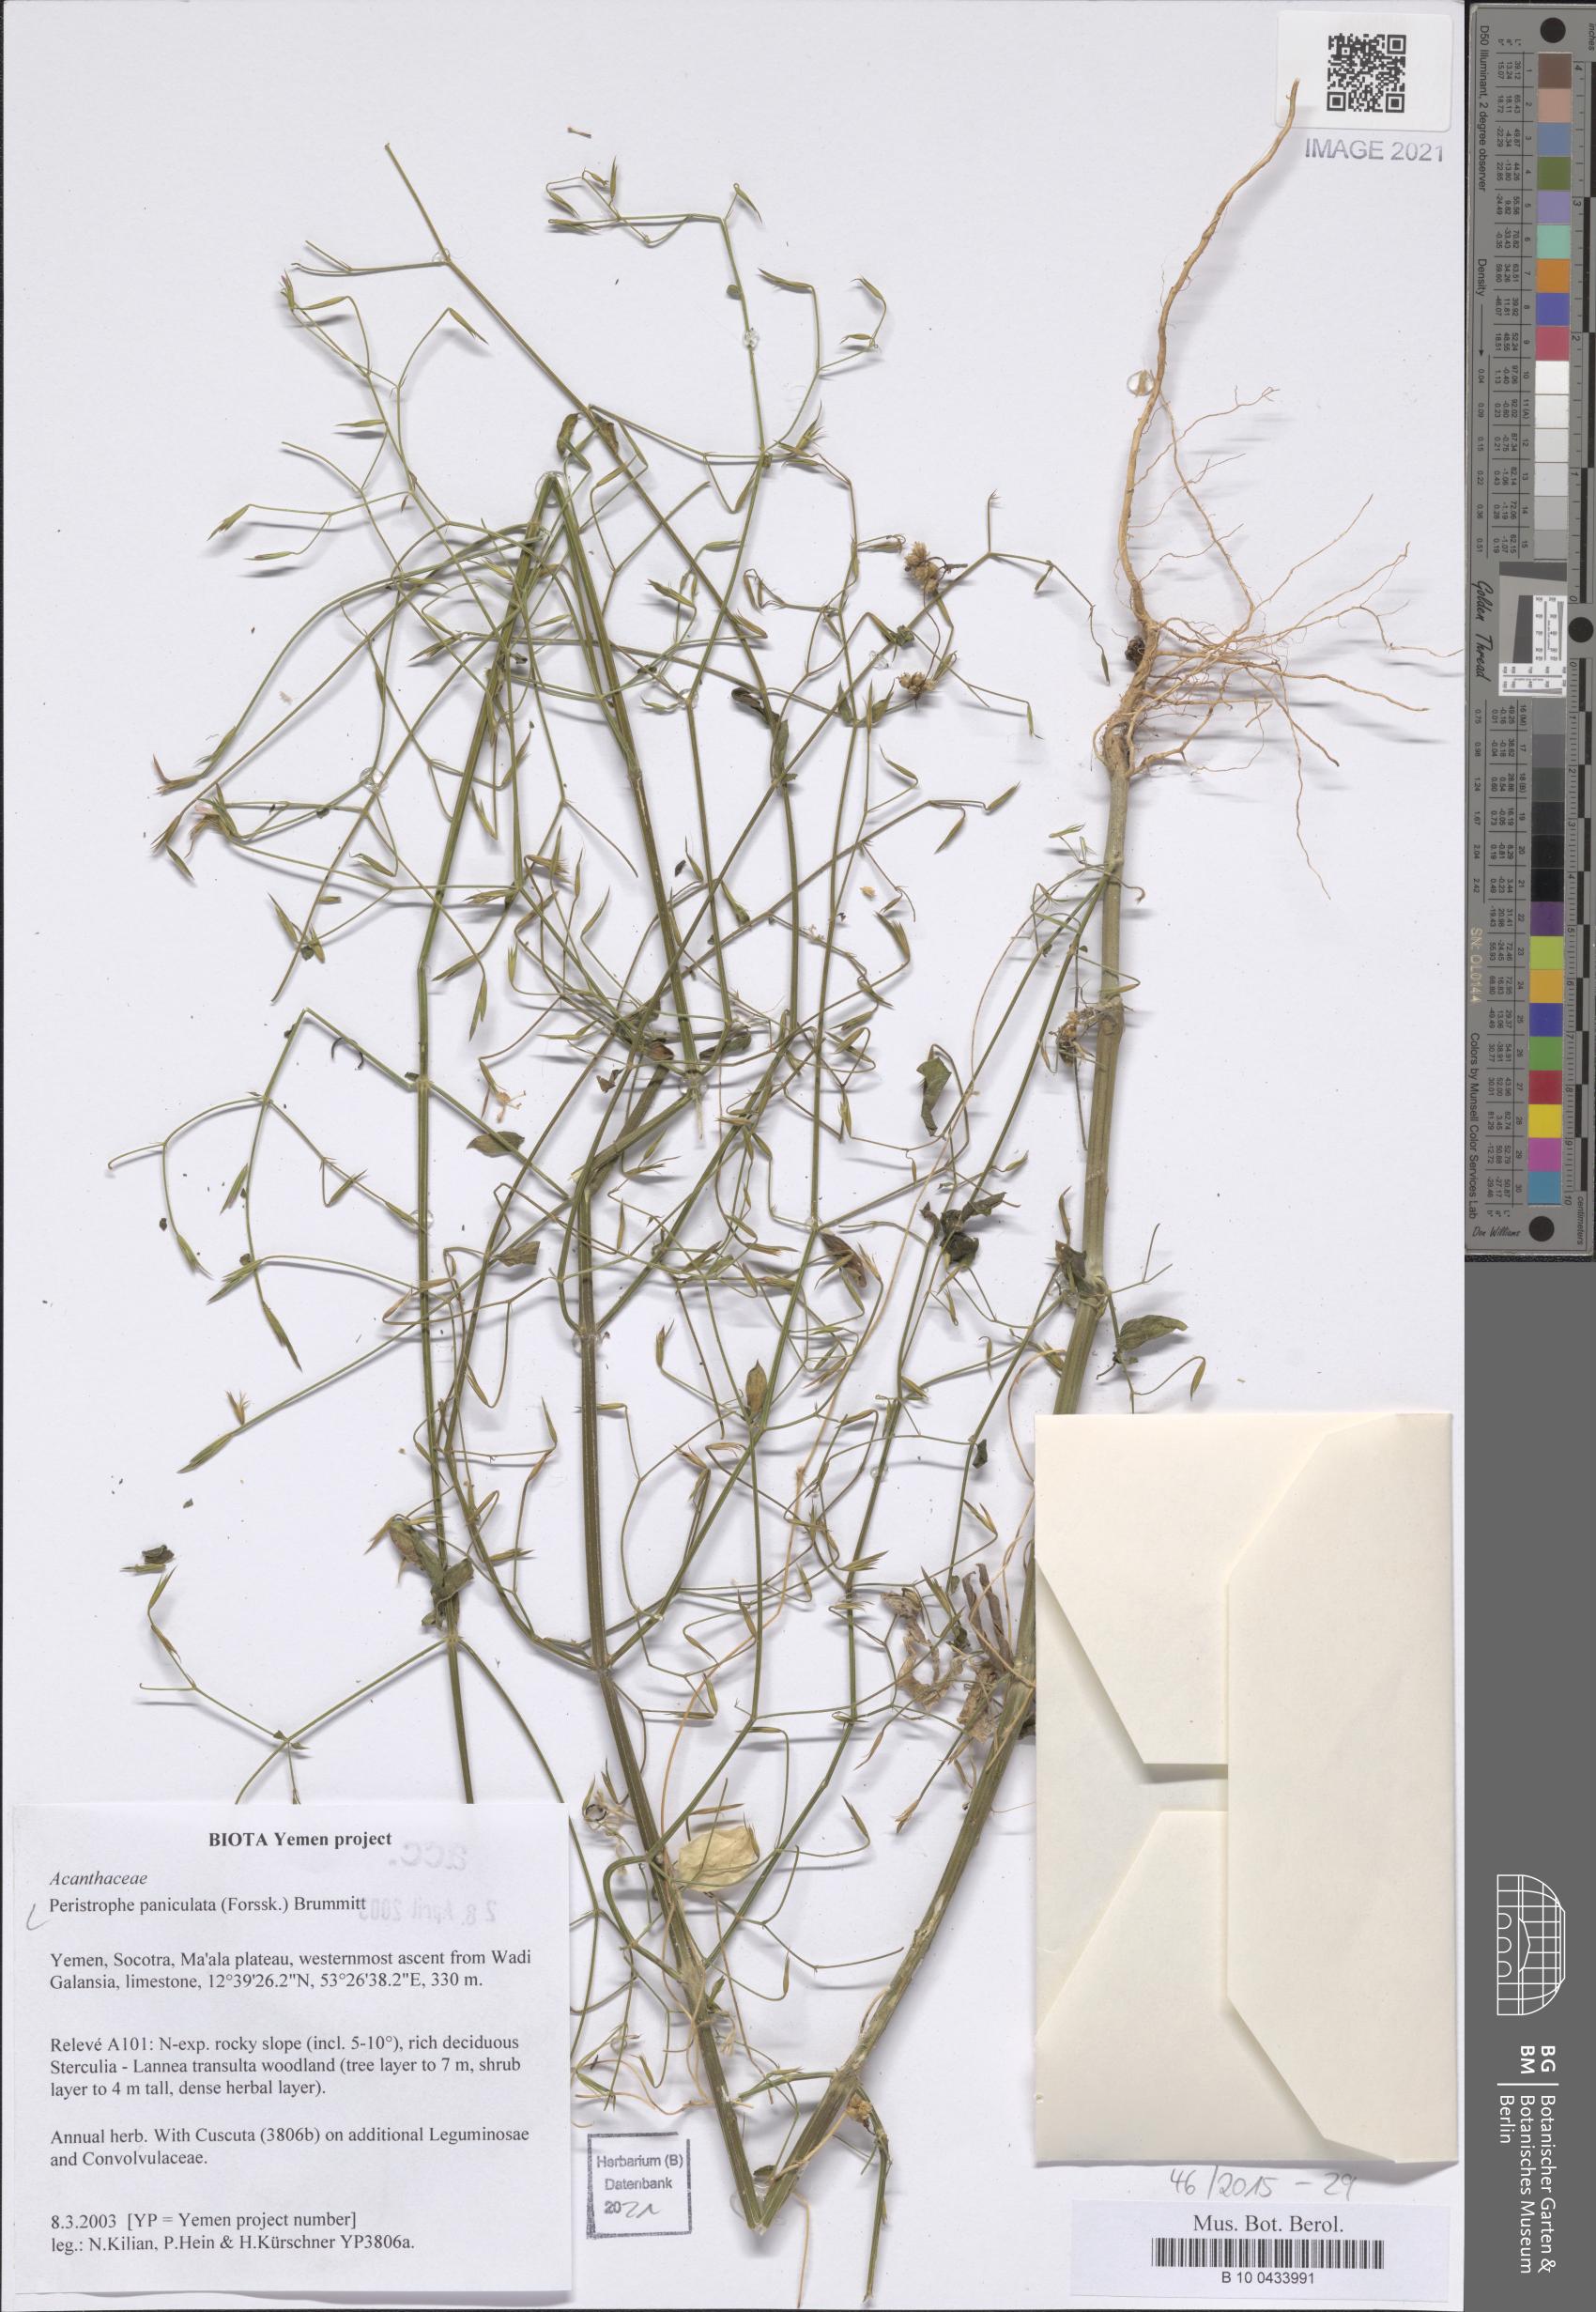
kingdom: Plantae
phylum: Tracheophyta
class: Magnoliopsida
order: Lamiales
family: Acanthaceae
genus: Dicliptera
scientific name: Dicliptera paniculata
